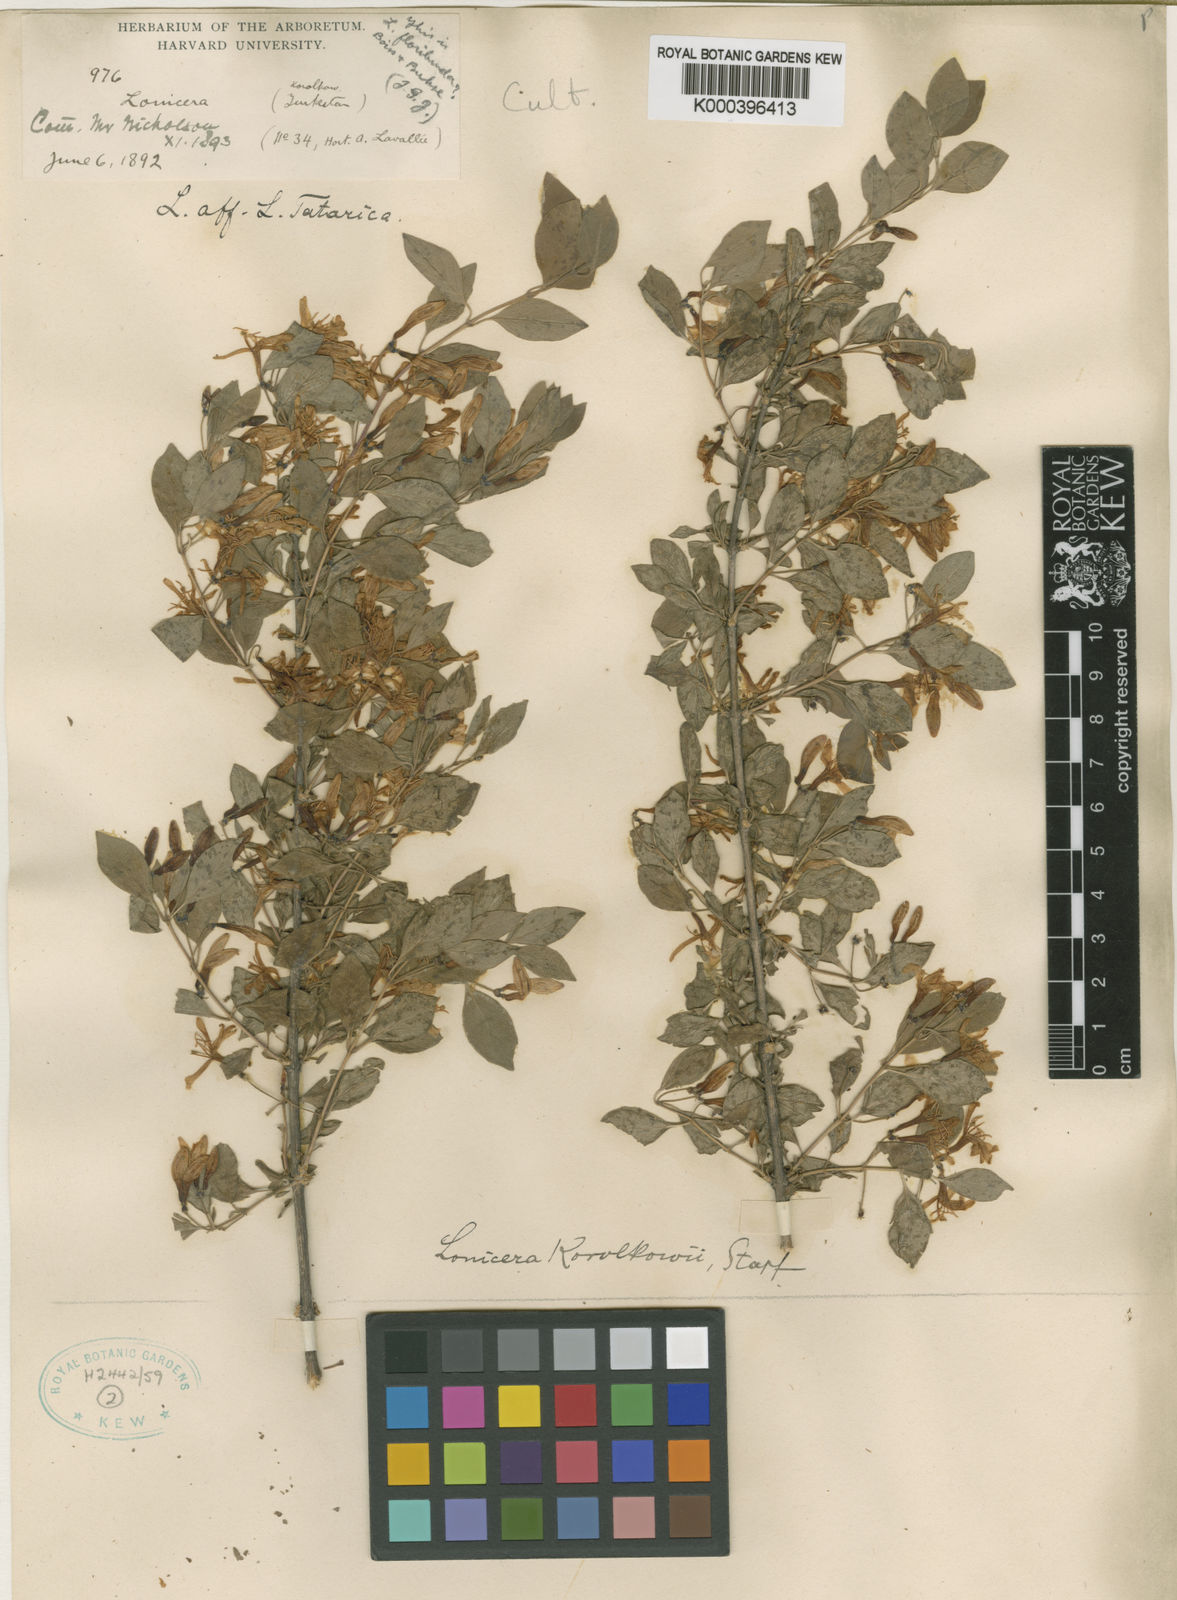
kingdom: Plantae
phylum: Tracheophyta
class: Magnoliopsida
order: Dipsacales
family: Caprifoliaceae
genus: Lonicera
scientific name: Lonicera korolkowii
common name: Blueleaf honeysuckle
